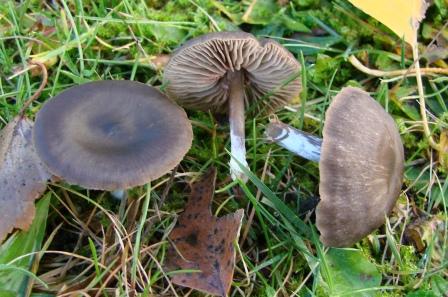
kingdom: Fungi
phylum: Basidiomycota
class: Agaricomycetes
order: Agaricales
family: Entolomataceae
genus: Entoloma
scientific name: Entoloma sericeum
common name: silkeglinsende rødblad
